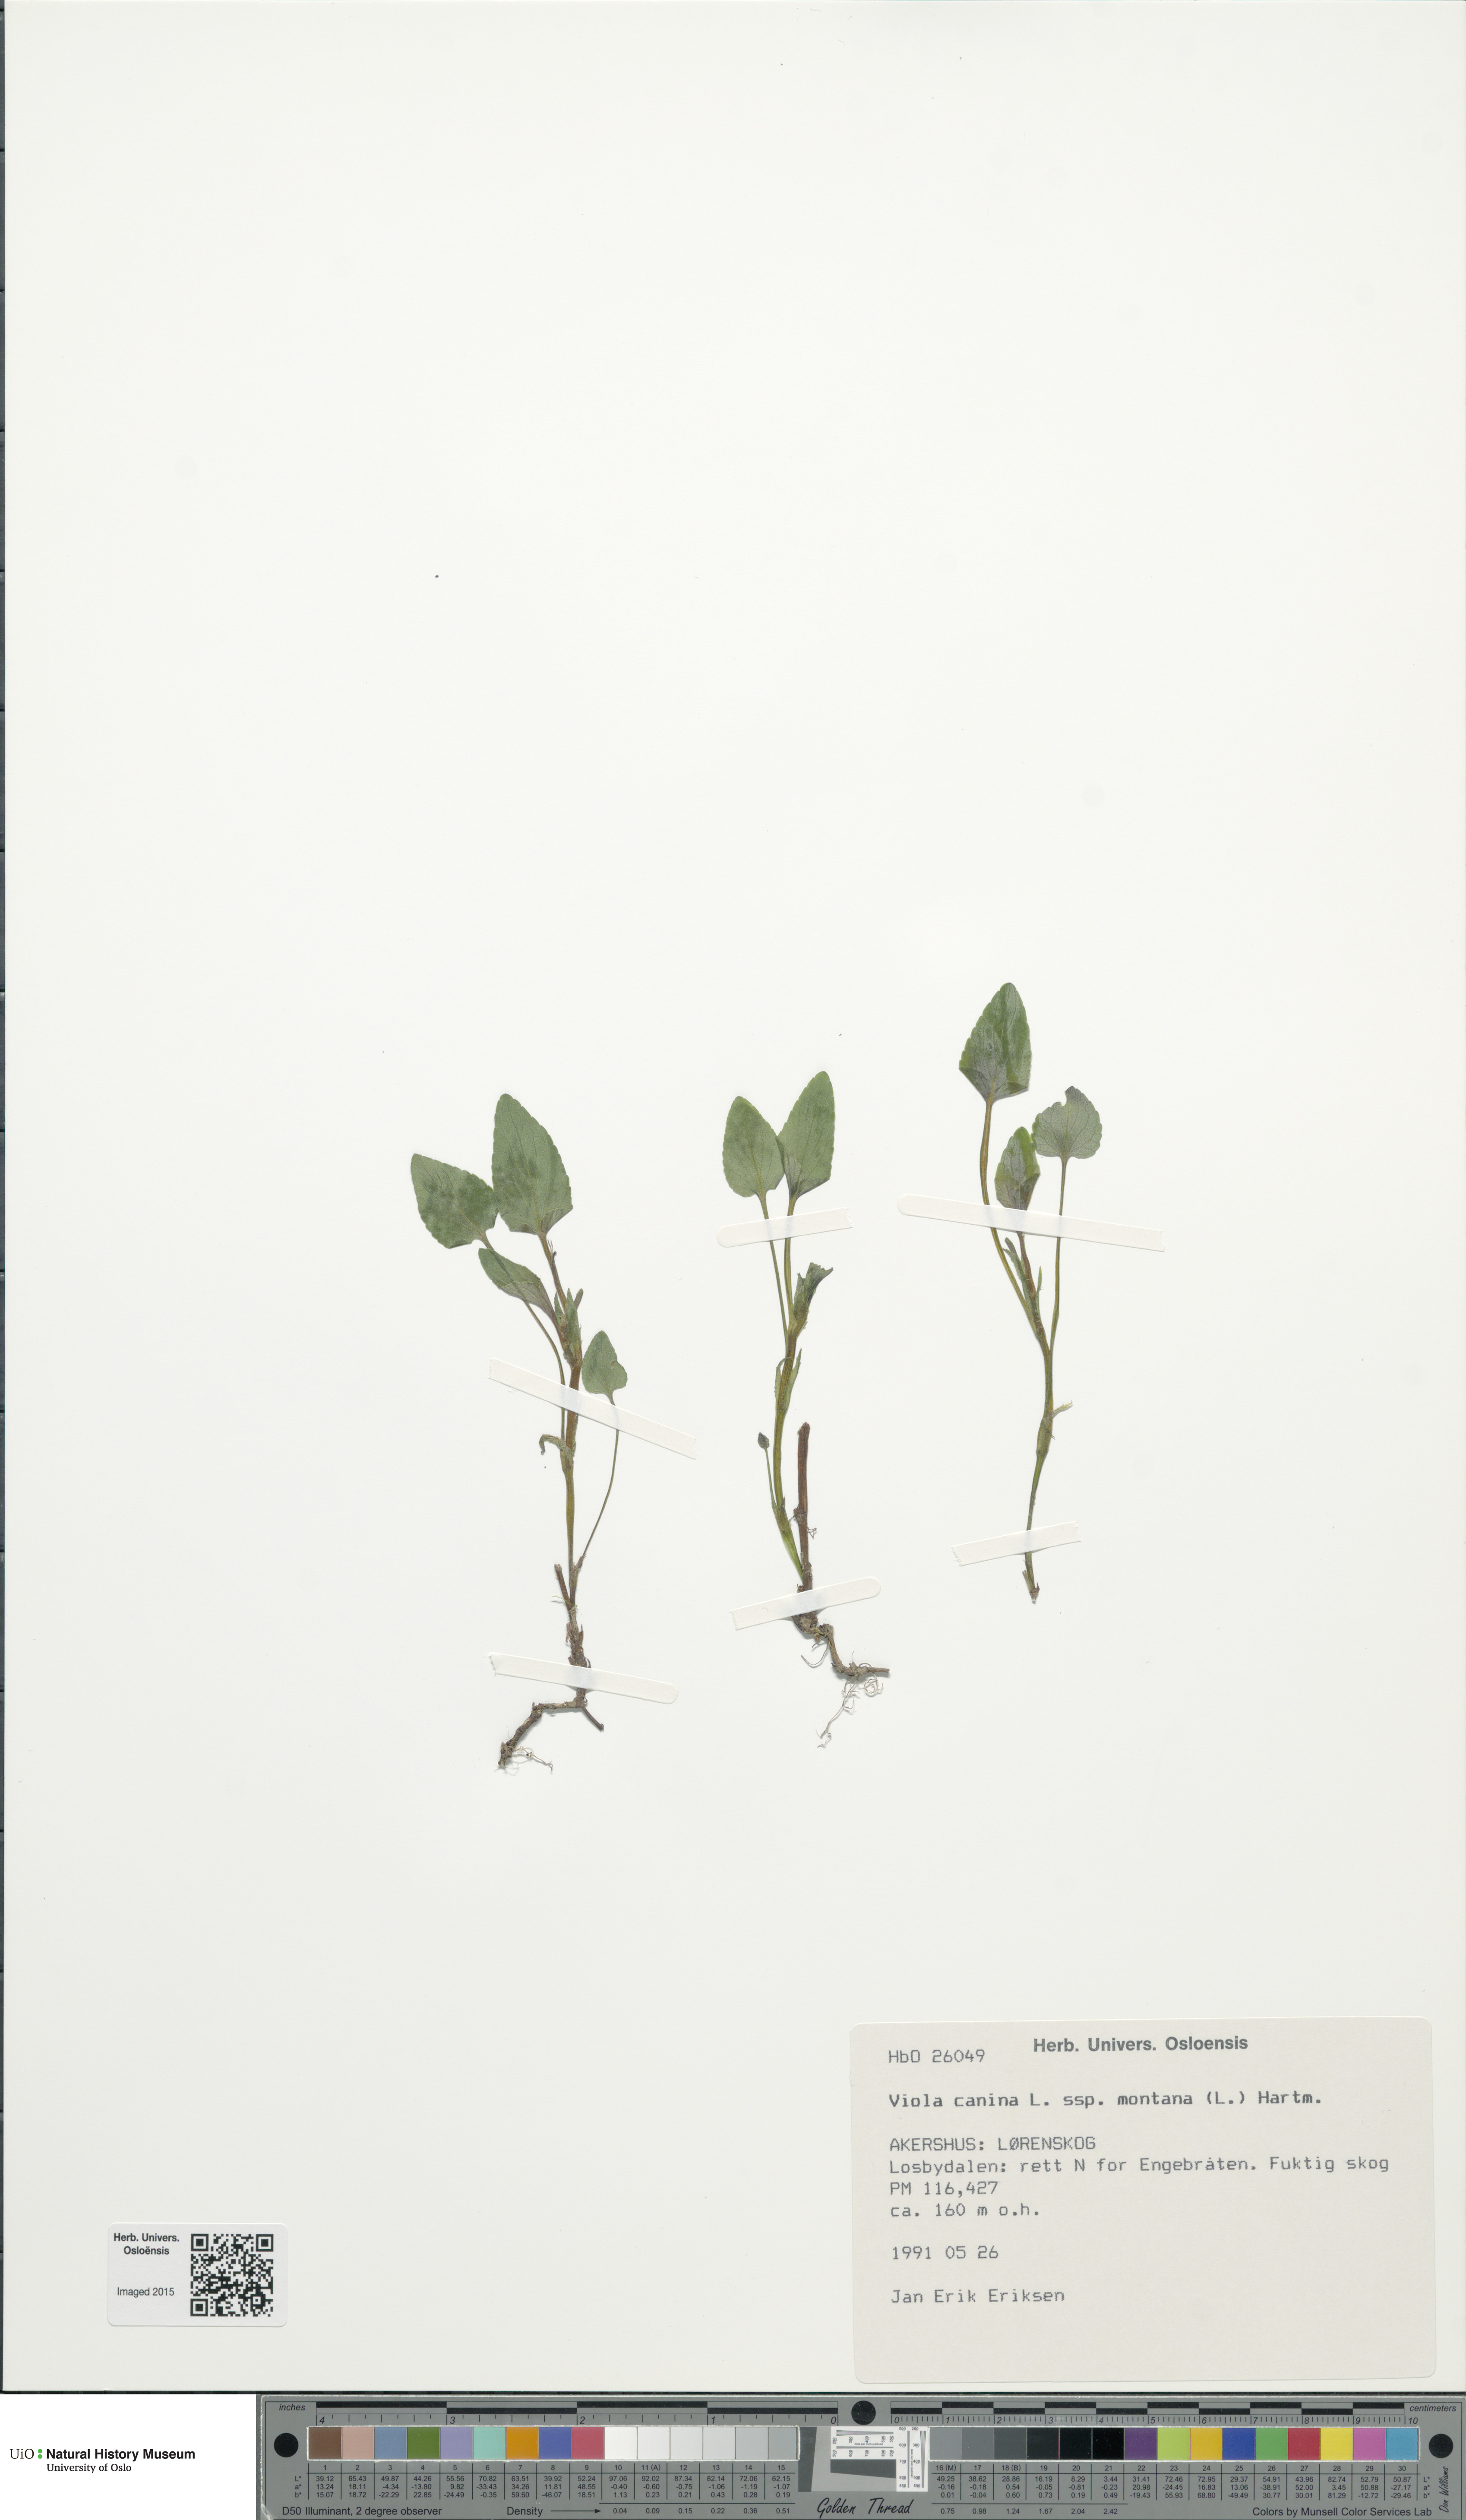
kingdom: Plantae
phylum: Tracheophyta
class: Magnoliopsida
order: Malpighiales
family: Violaceae
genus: Viola
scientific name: Viola ruppii
